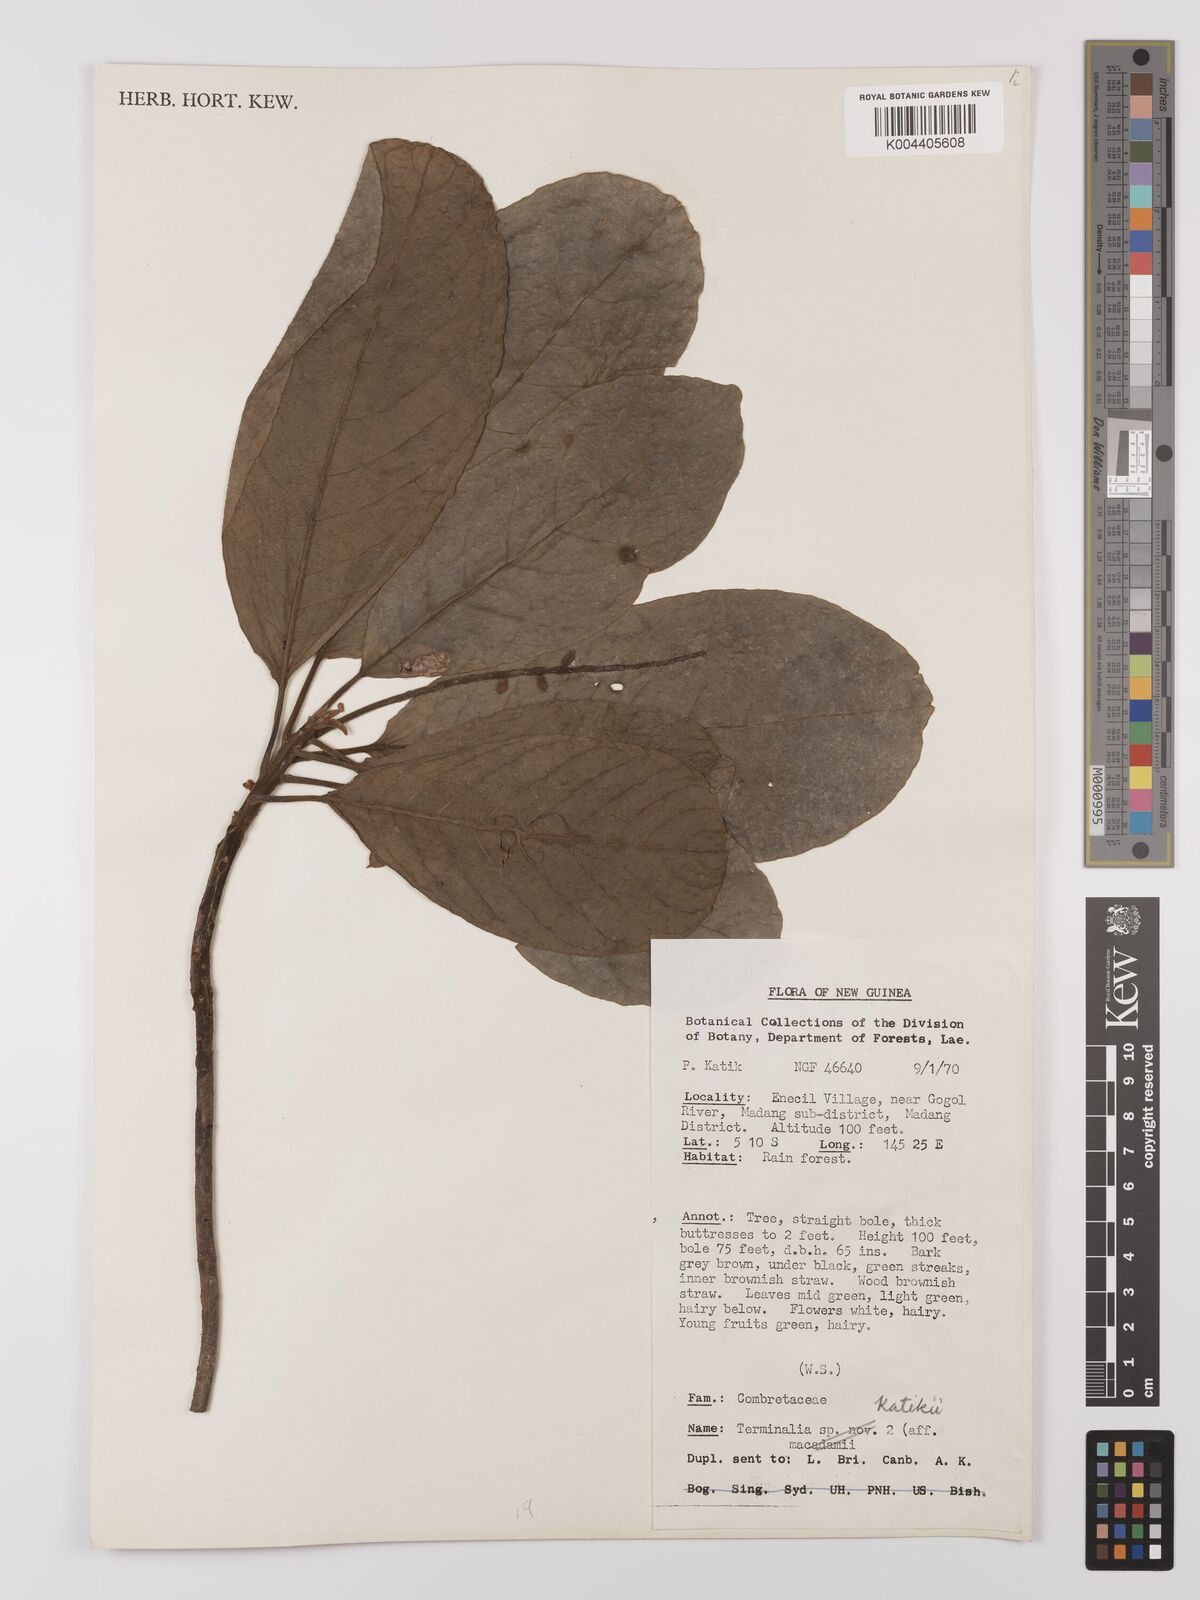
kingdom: Plantae
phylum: Tracheophyta
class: Magnoliopsida
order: Myrtales
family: Combretaceae
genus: Terminalia
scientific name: Terminalia katikii
